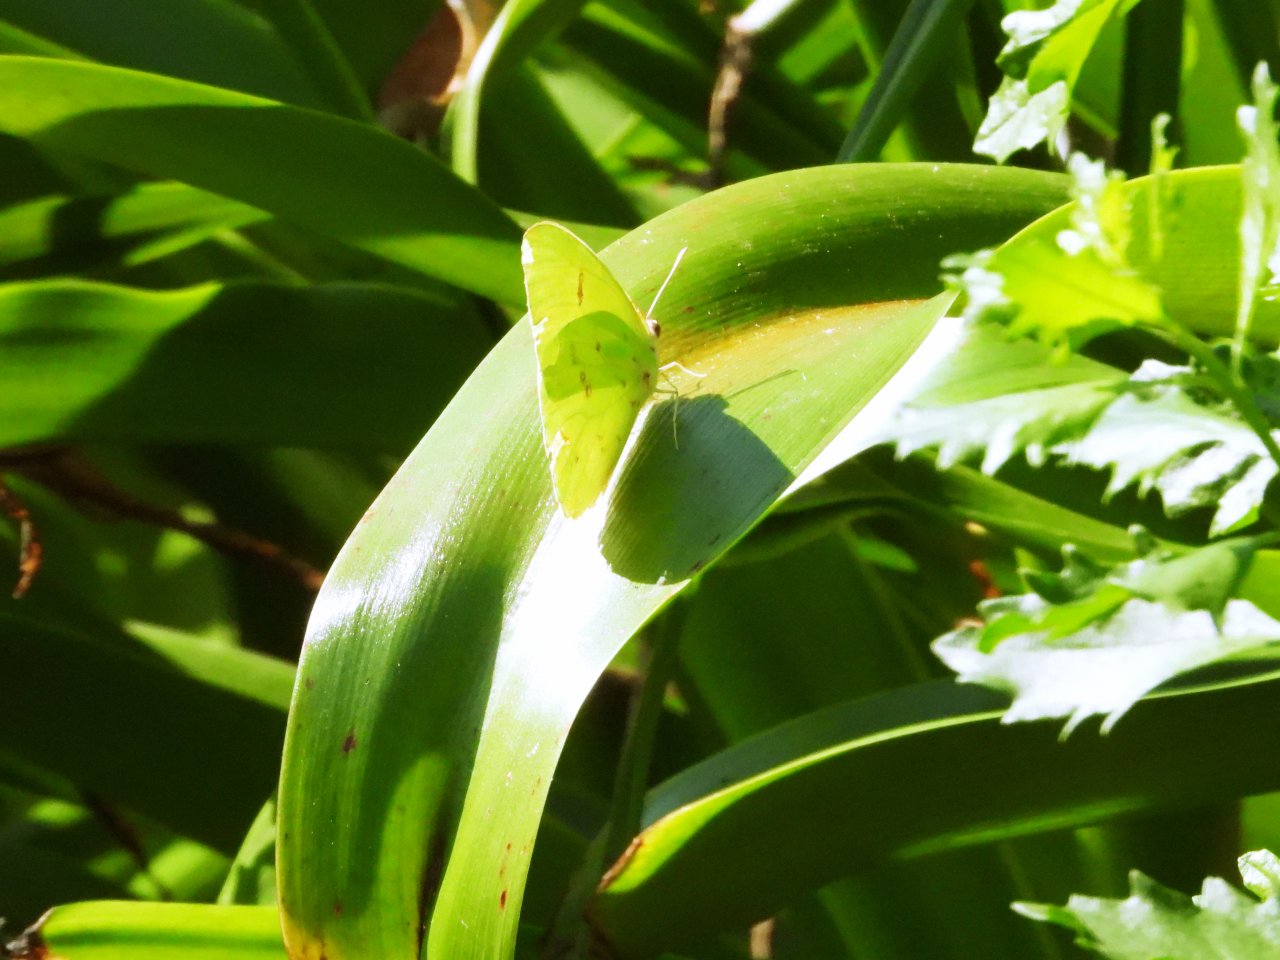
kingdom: Animalia
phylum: Arthropoda
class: Insecta
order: Lepidoptera
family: Pieridae
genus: Phoebis
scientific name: Phoebis sennae
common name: Cloudless Sulphur
